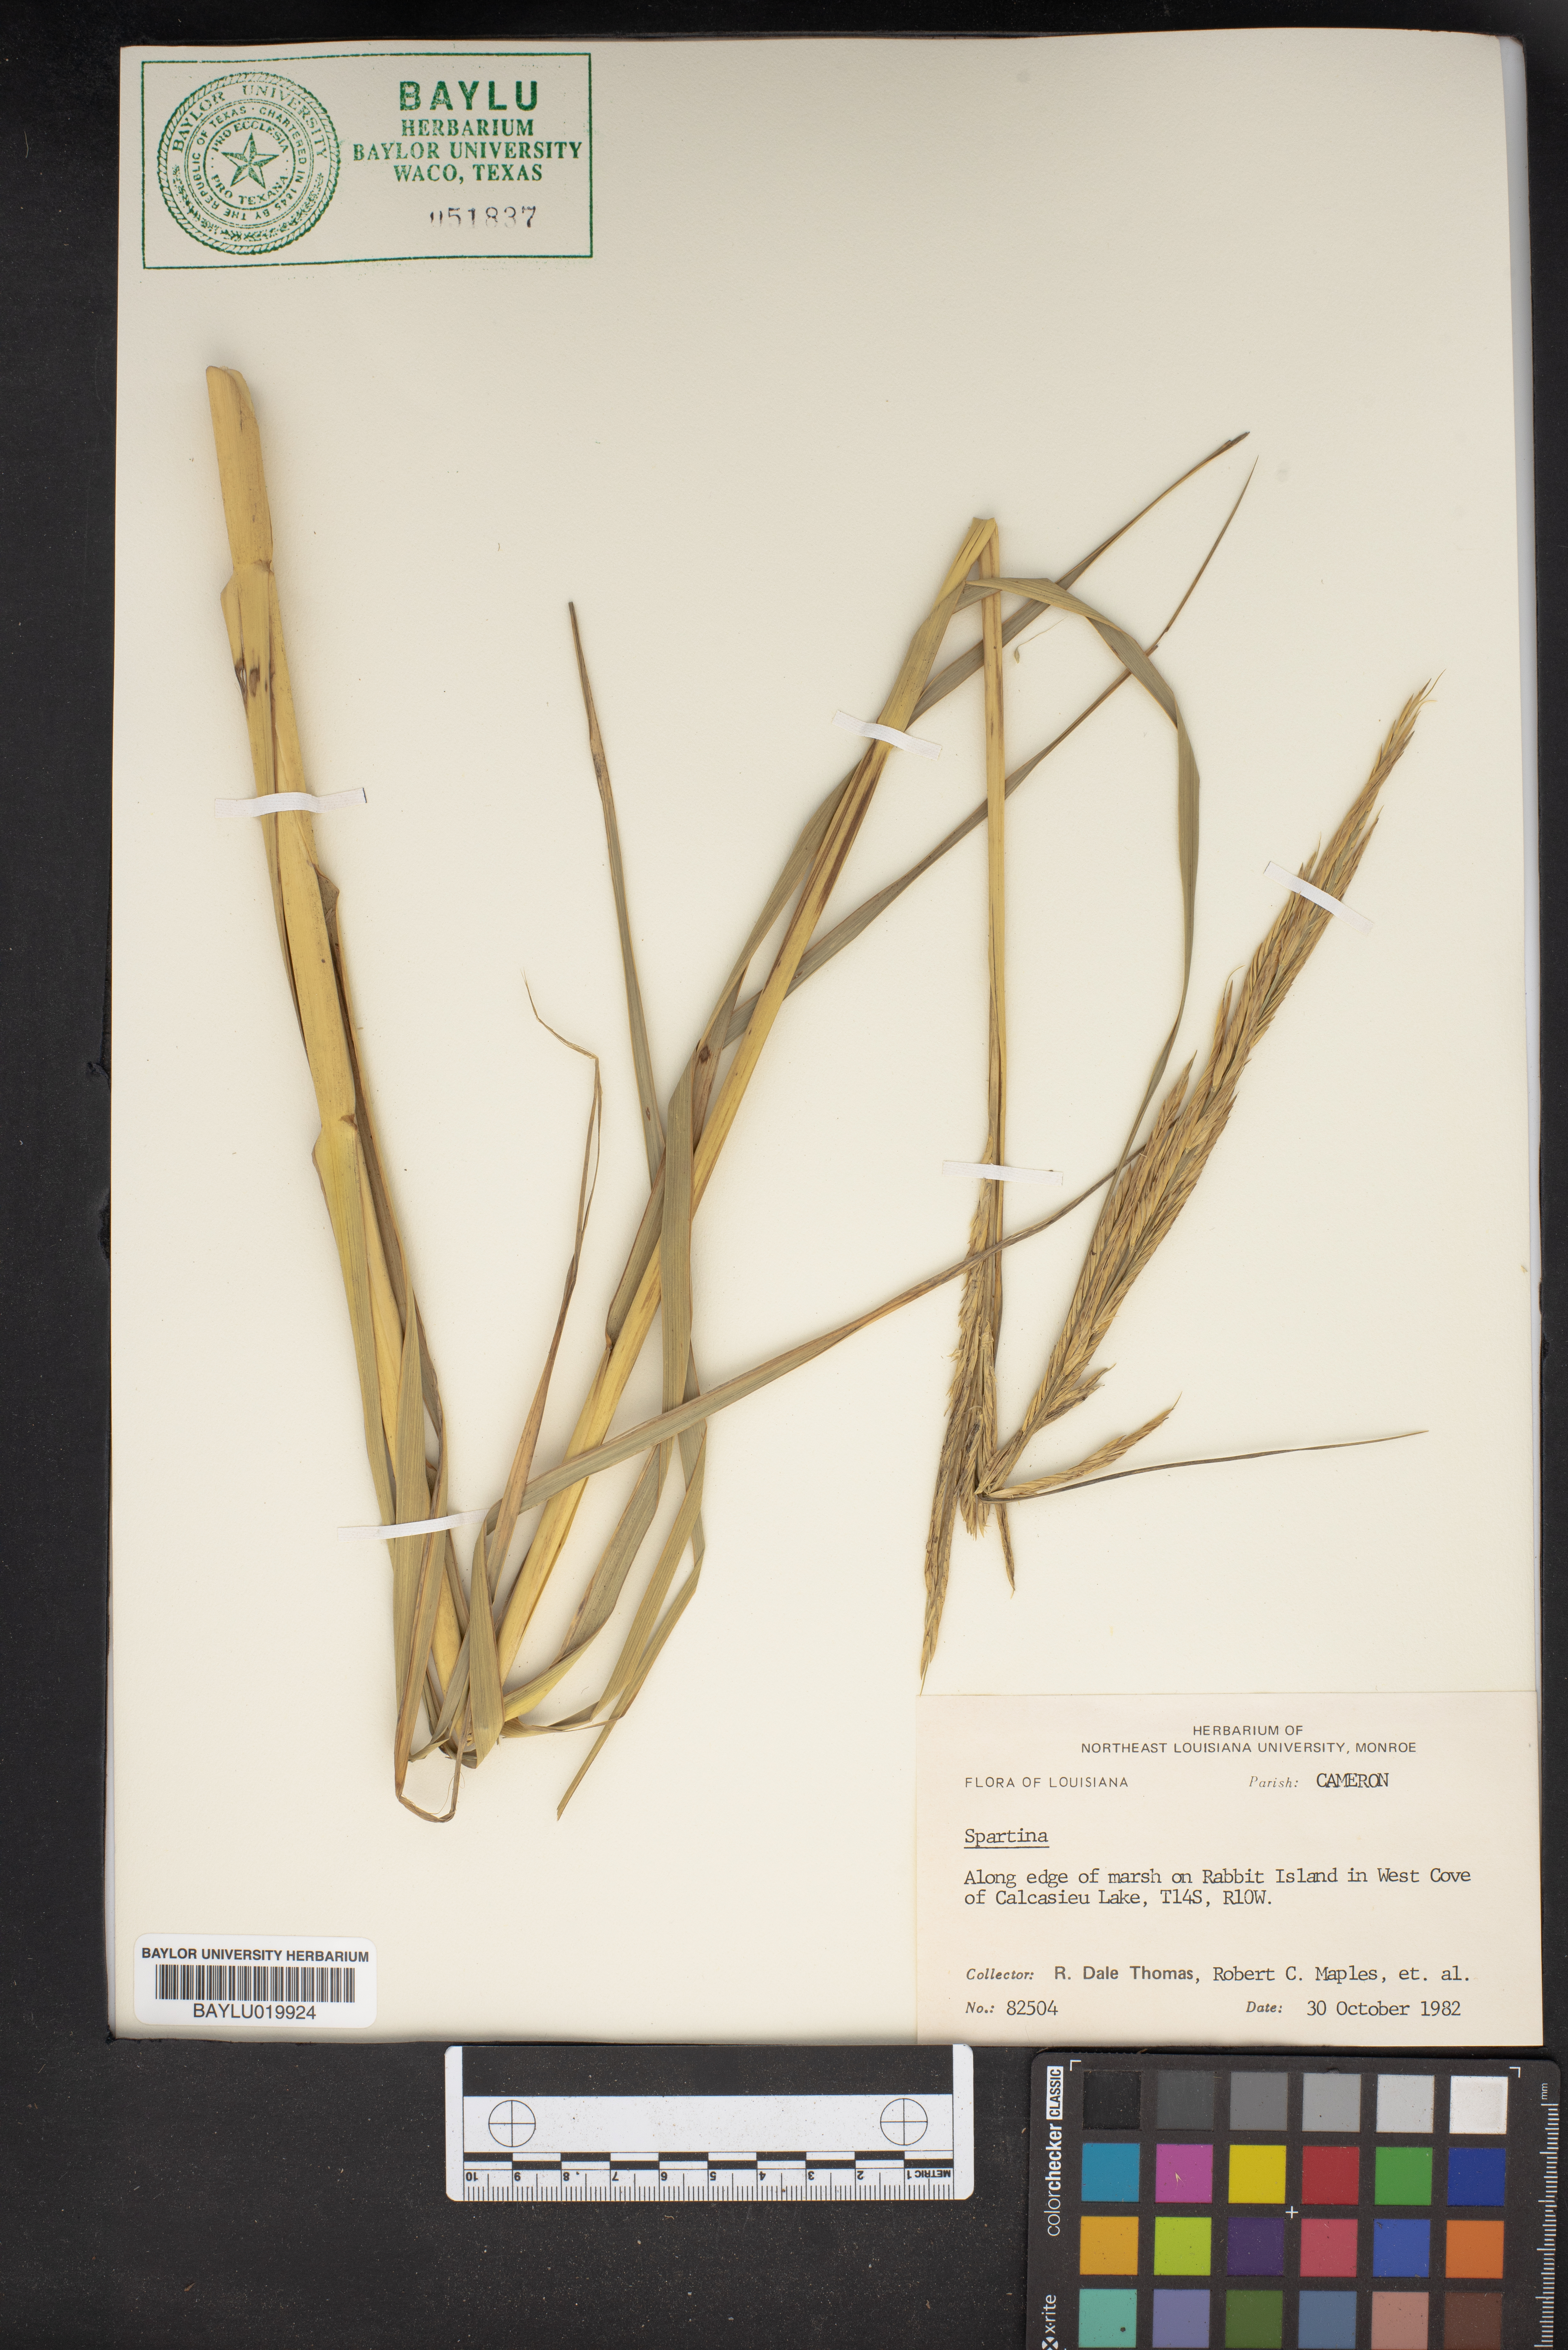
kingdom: Animalia
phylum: Mollusca
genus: Spartina
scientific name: Spartina
